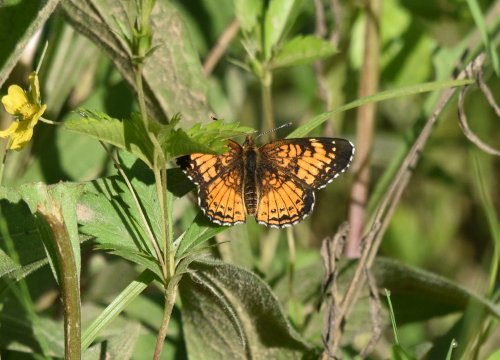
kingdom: Animalia
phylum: Arthropoda
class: Insecta
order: Lepidoptera
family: Nymphalidae
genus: Chlosyne
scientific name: Chlosyne harrisii
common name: Harris's Checkerspot
